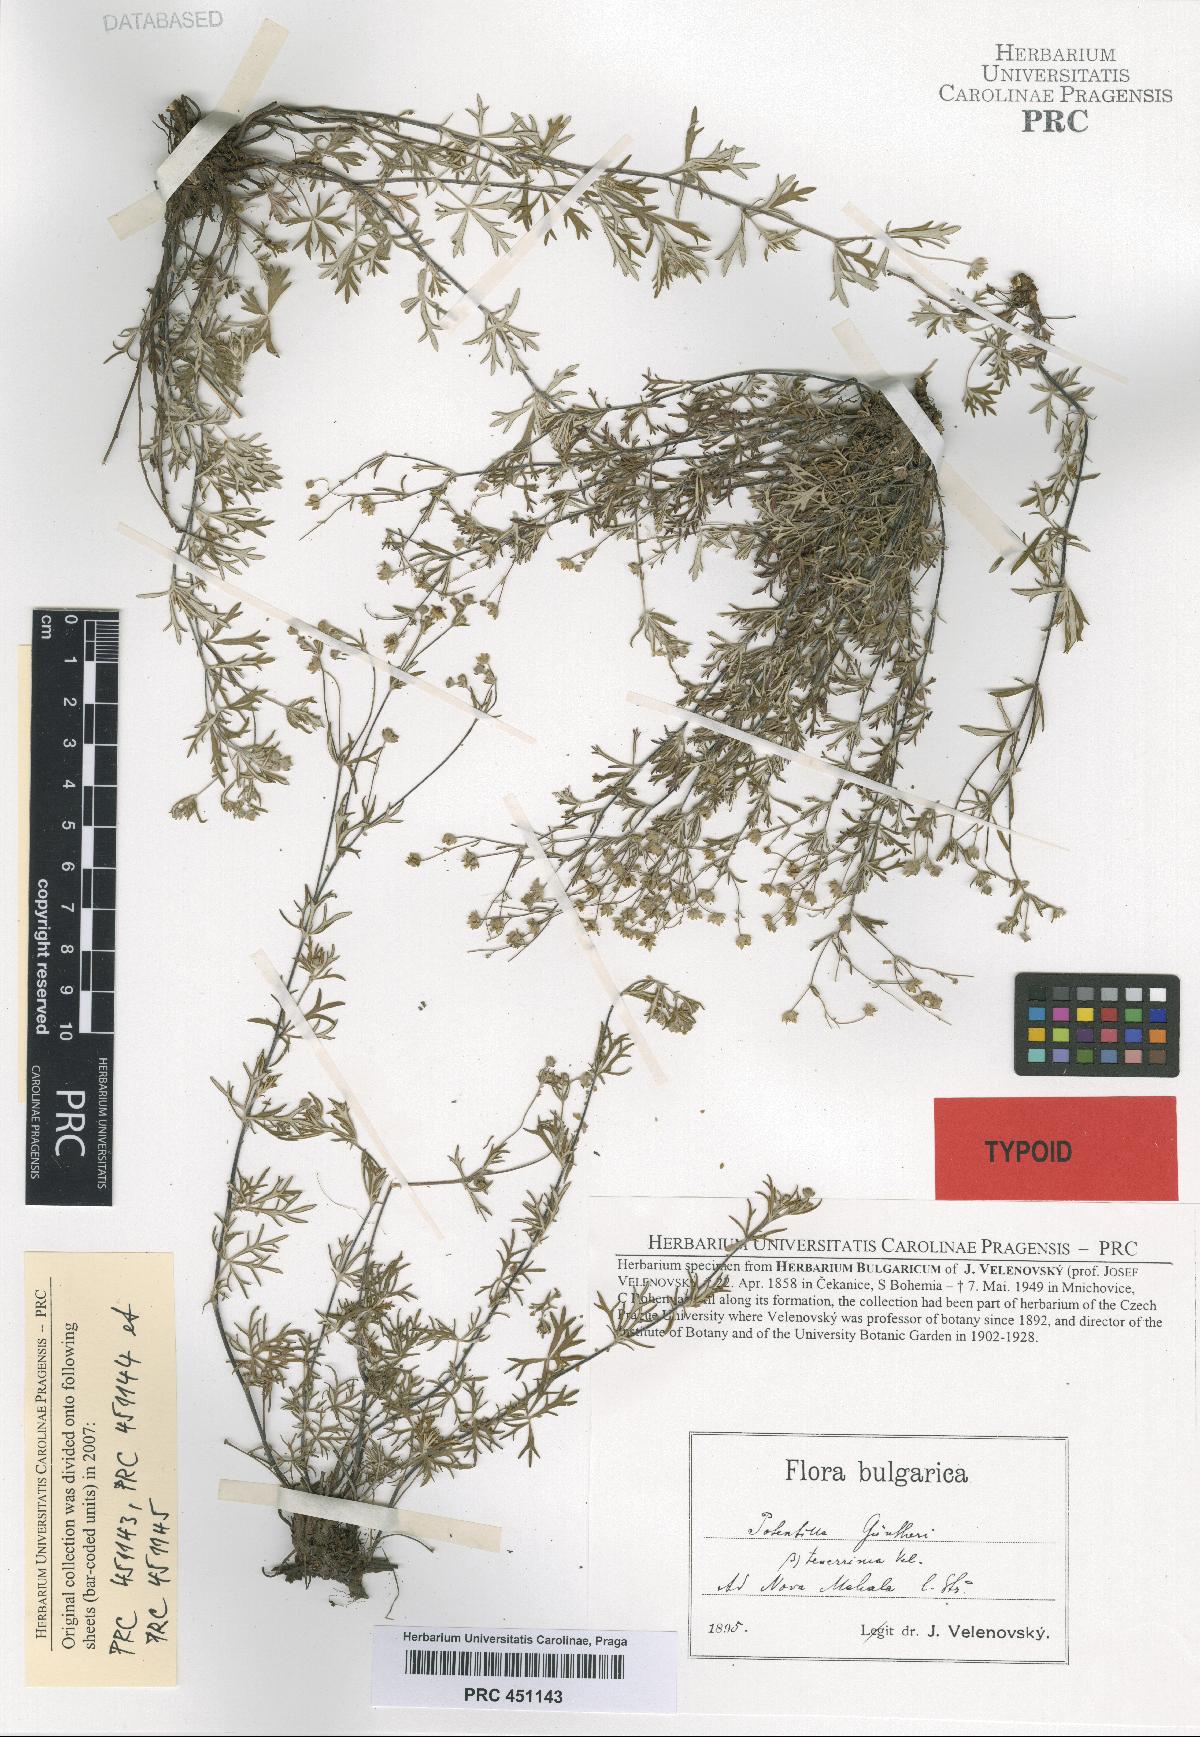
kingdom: Plantae
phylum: Tracheophyta
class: Magnoliopsida
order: Rosales
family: Rosaceae
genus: Potentilla
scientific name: Potentilla
